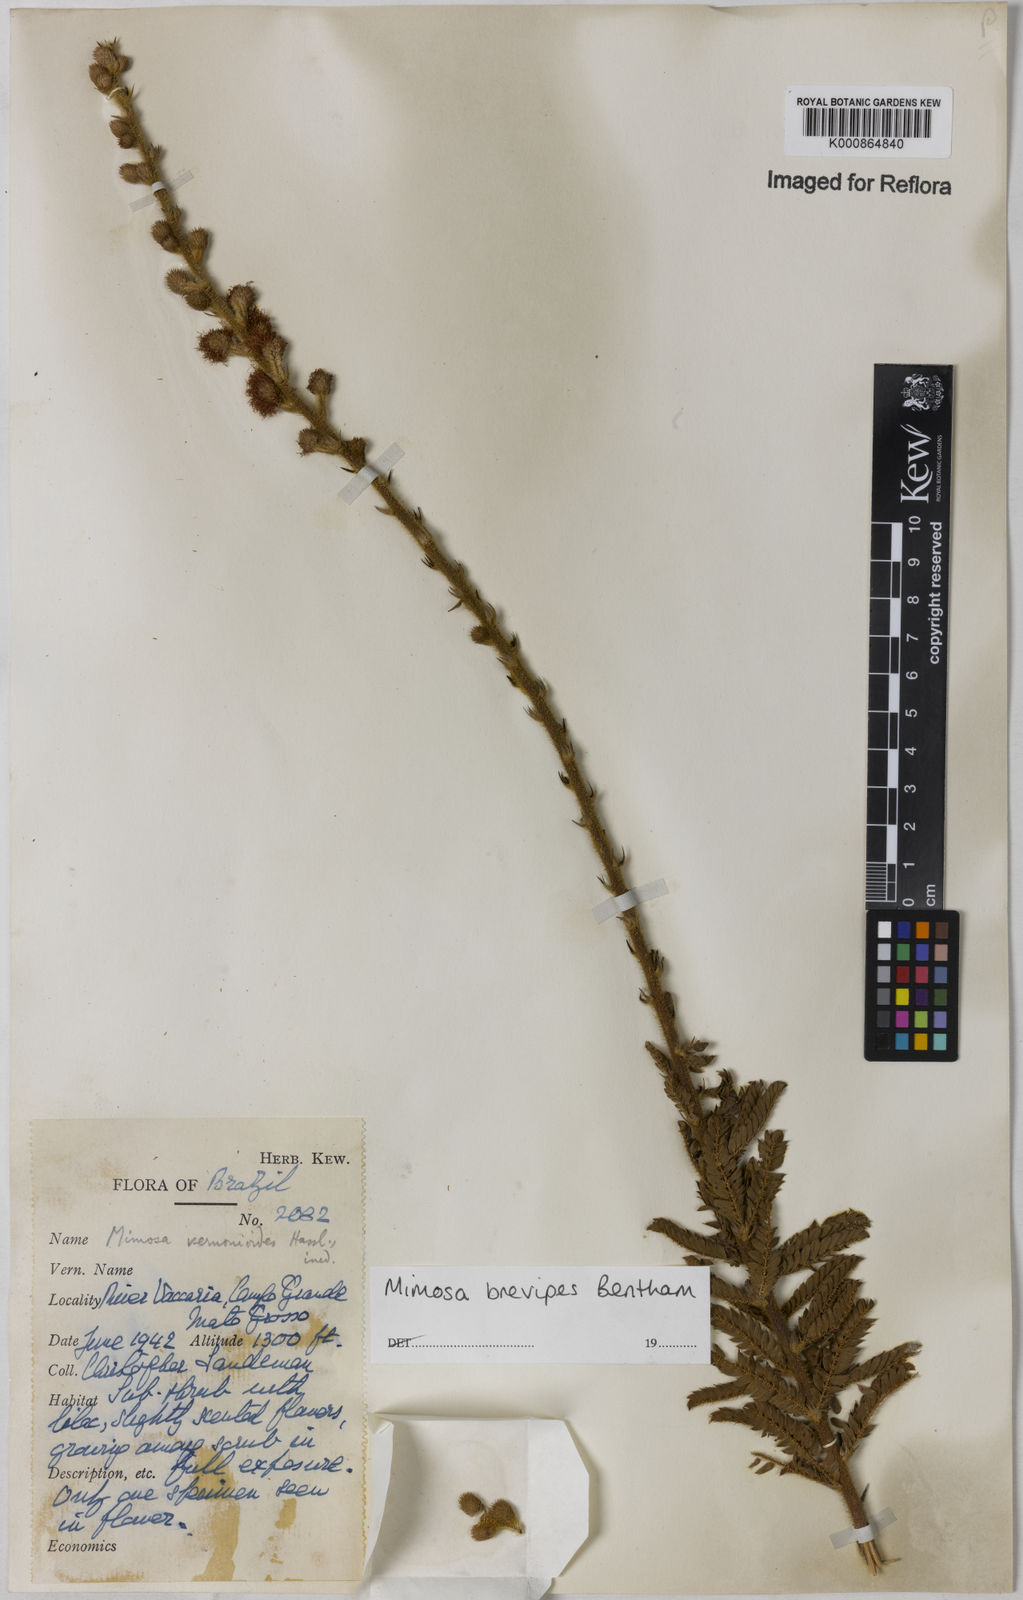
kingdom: Plantae
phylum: Tracheophyta
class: Magnoliopsida
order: Fabales
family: Fabaceae
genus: Mimosa
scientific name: Mimosa brevipes
